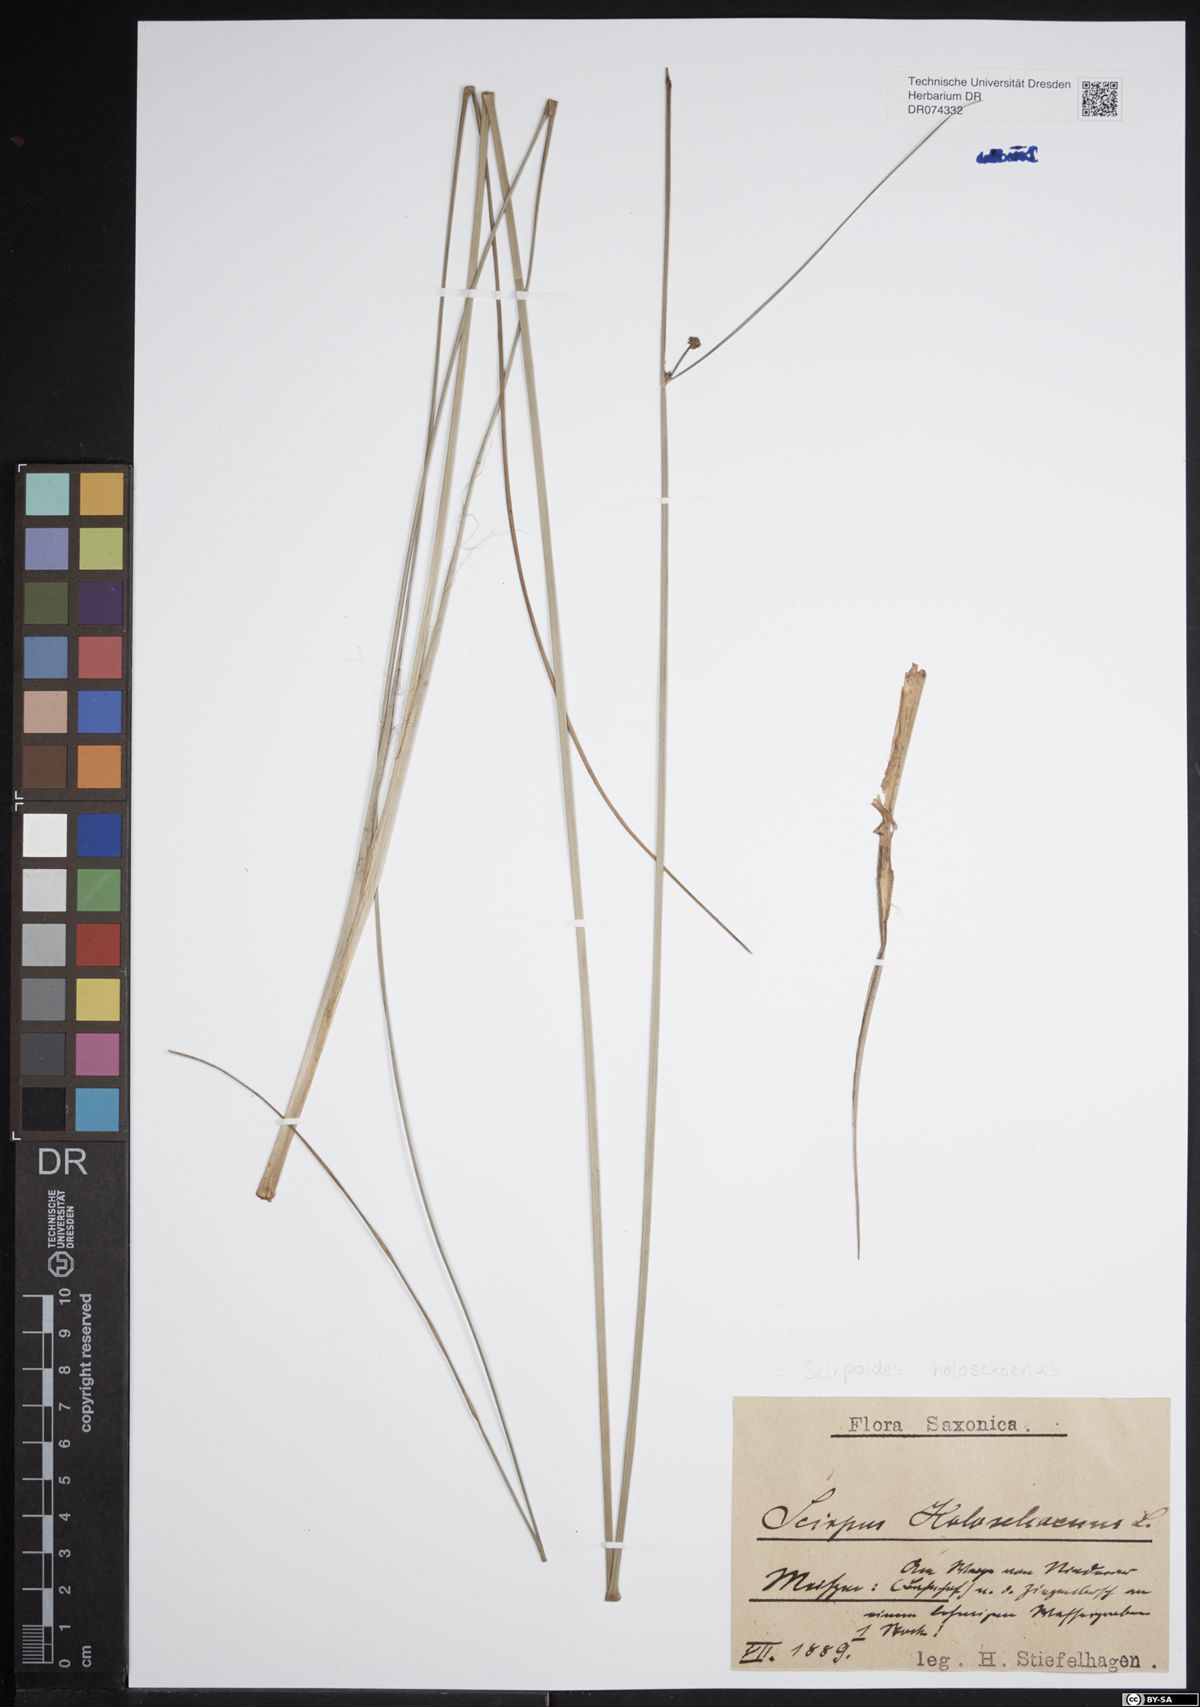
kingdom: Plantae
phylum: Tracheophyta
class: Liliopsida
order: Poales
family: Cyperaceae
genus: Scirpoides
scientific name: Scirpoides holoschoenus
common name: Round-headed club-rush
